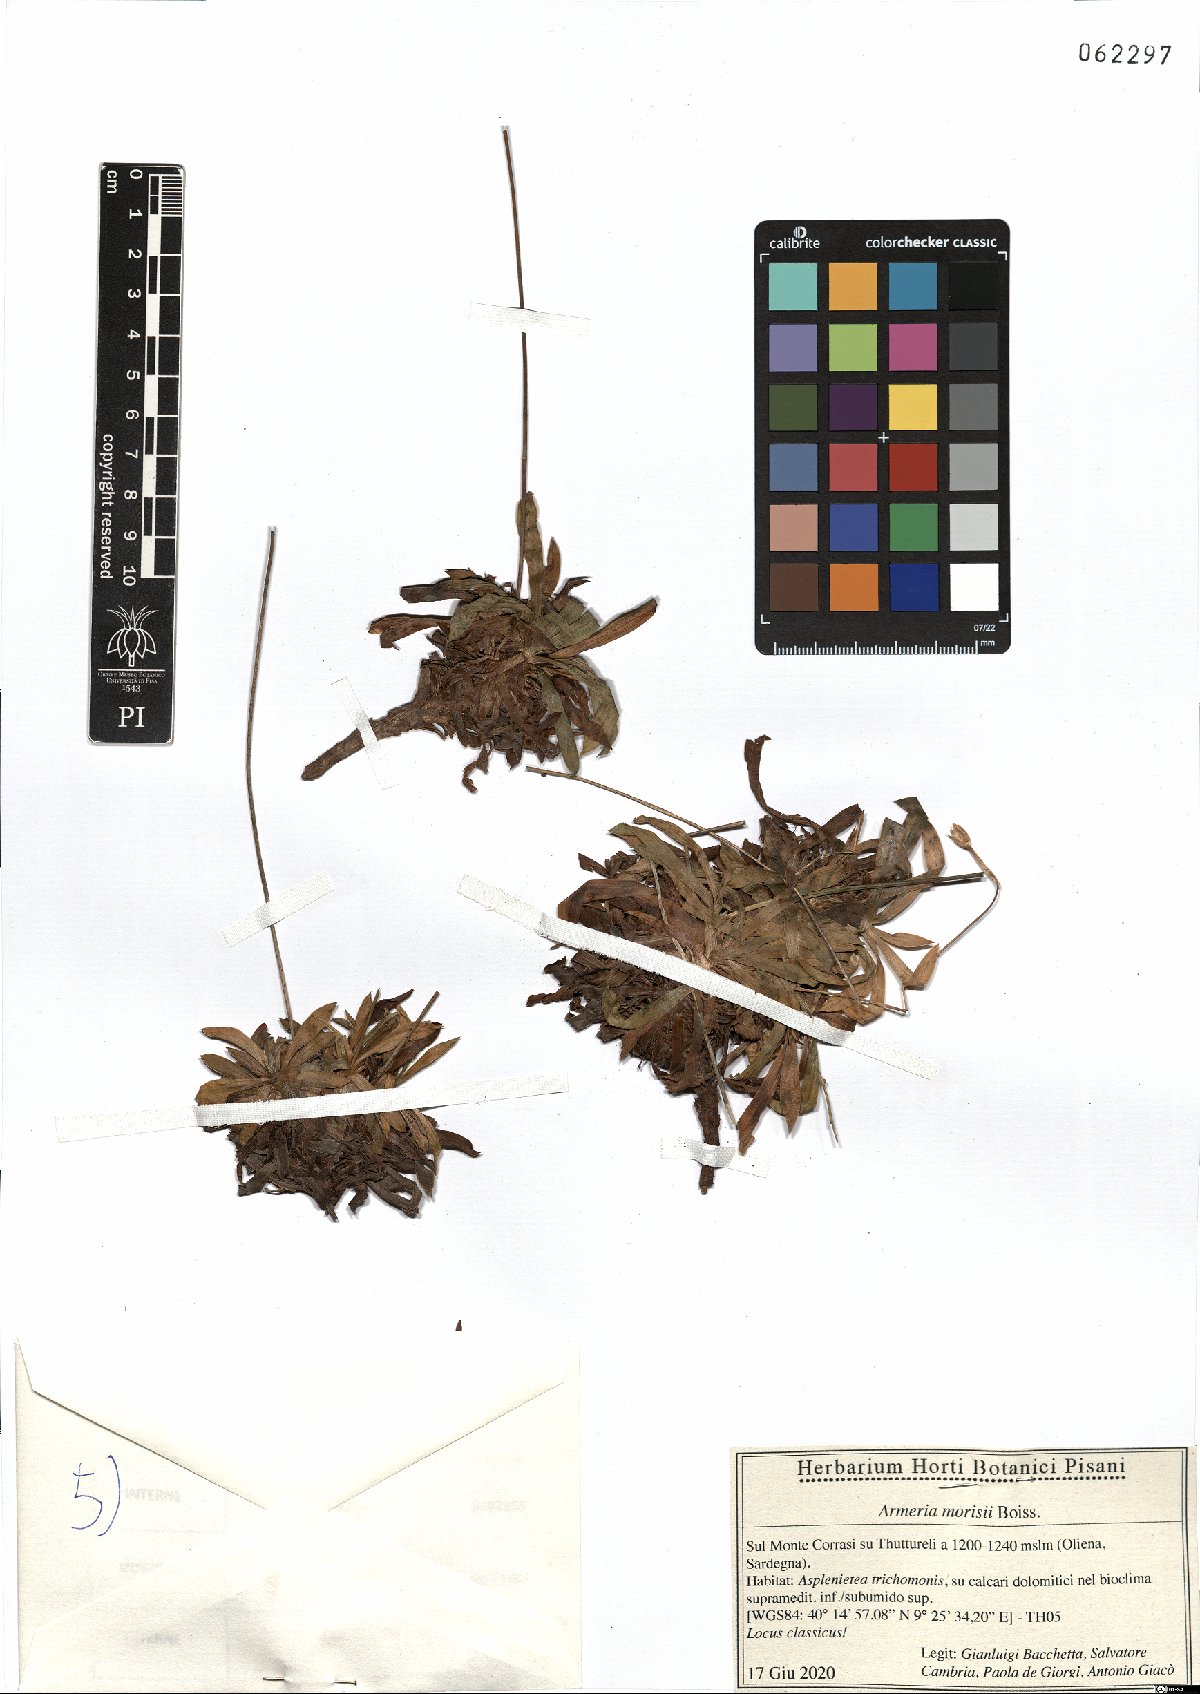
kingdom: Plantae
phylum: Tracheophyta
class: Magnoliopsida
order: Caryophyllales
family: Plumbaginaceae
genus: Armeria
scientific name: Armeria morisii
